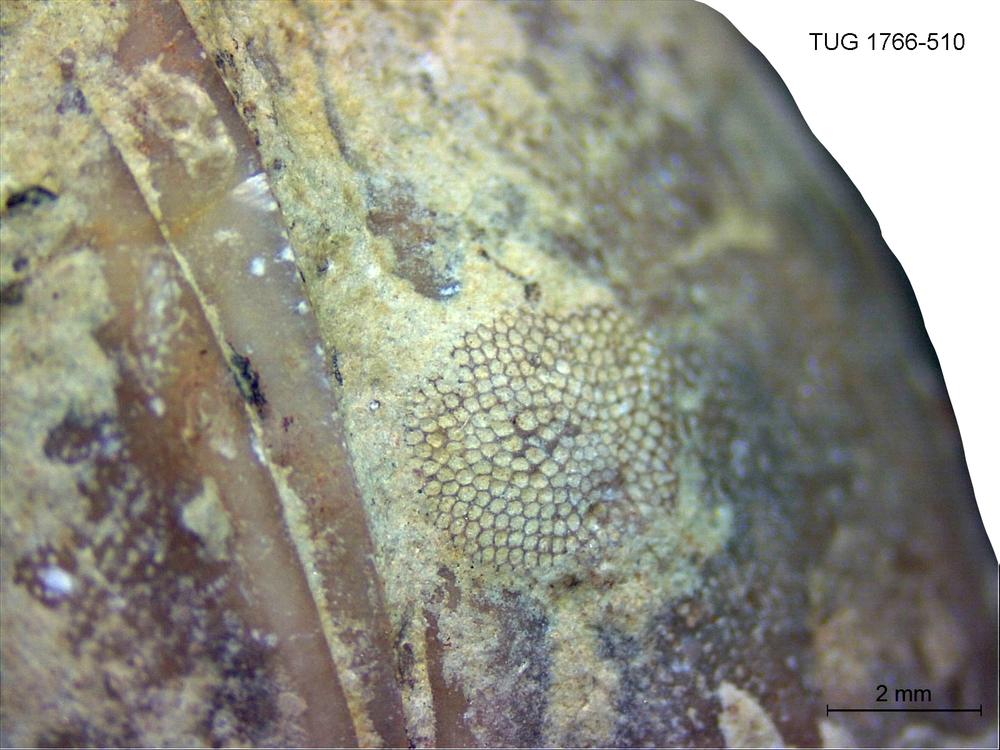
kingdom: Animalia
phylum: Bryozoa
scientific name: Bryozoa
